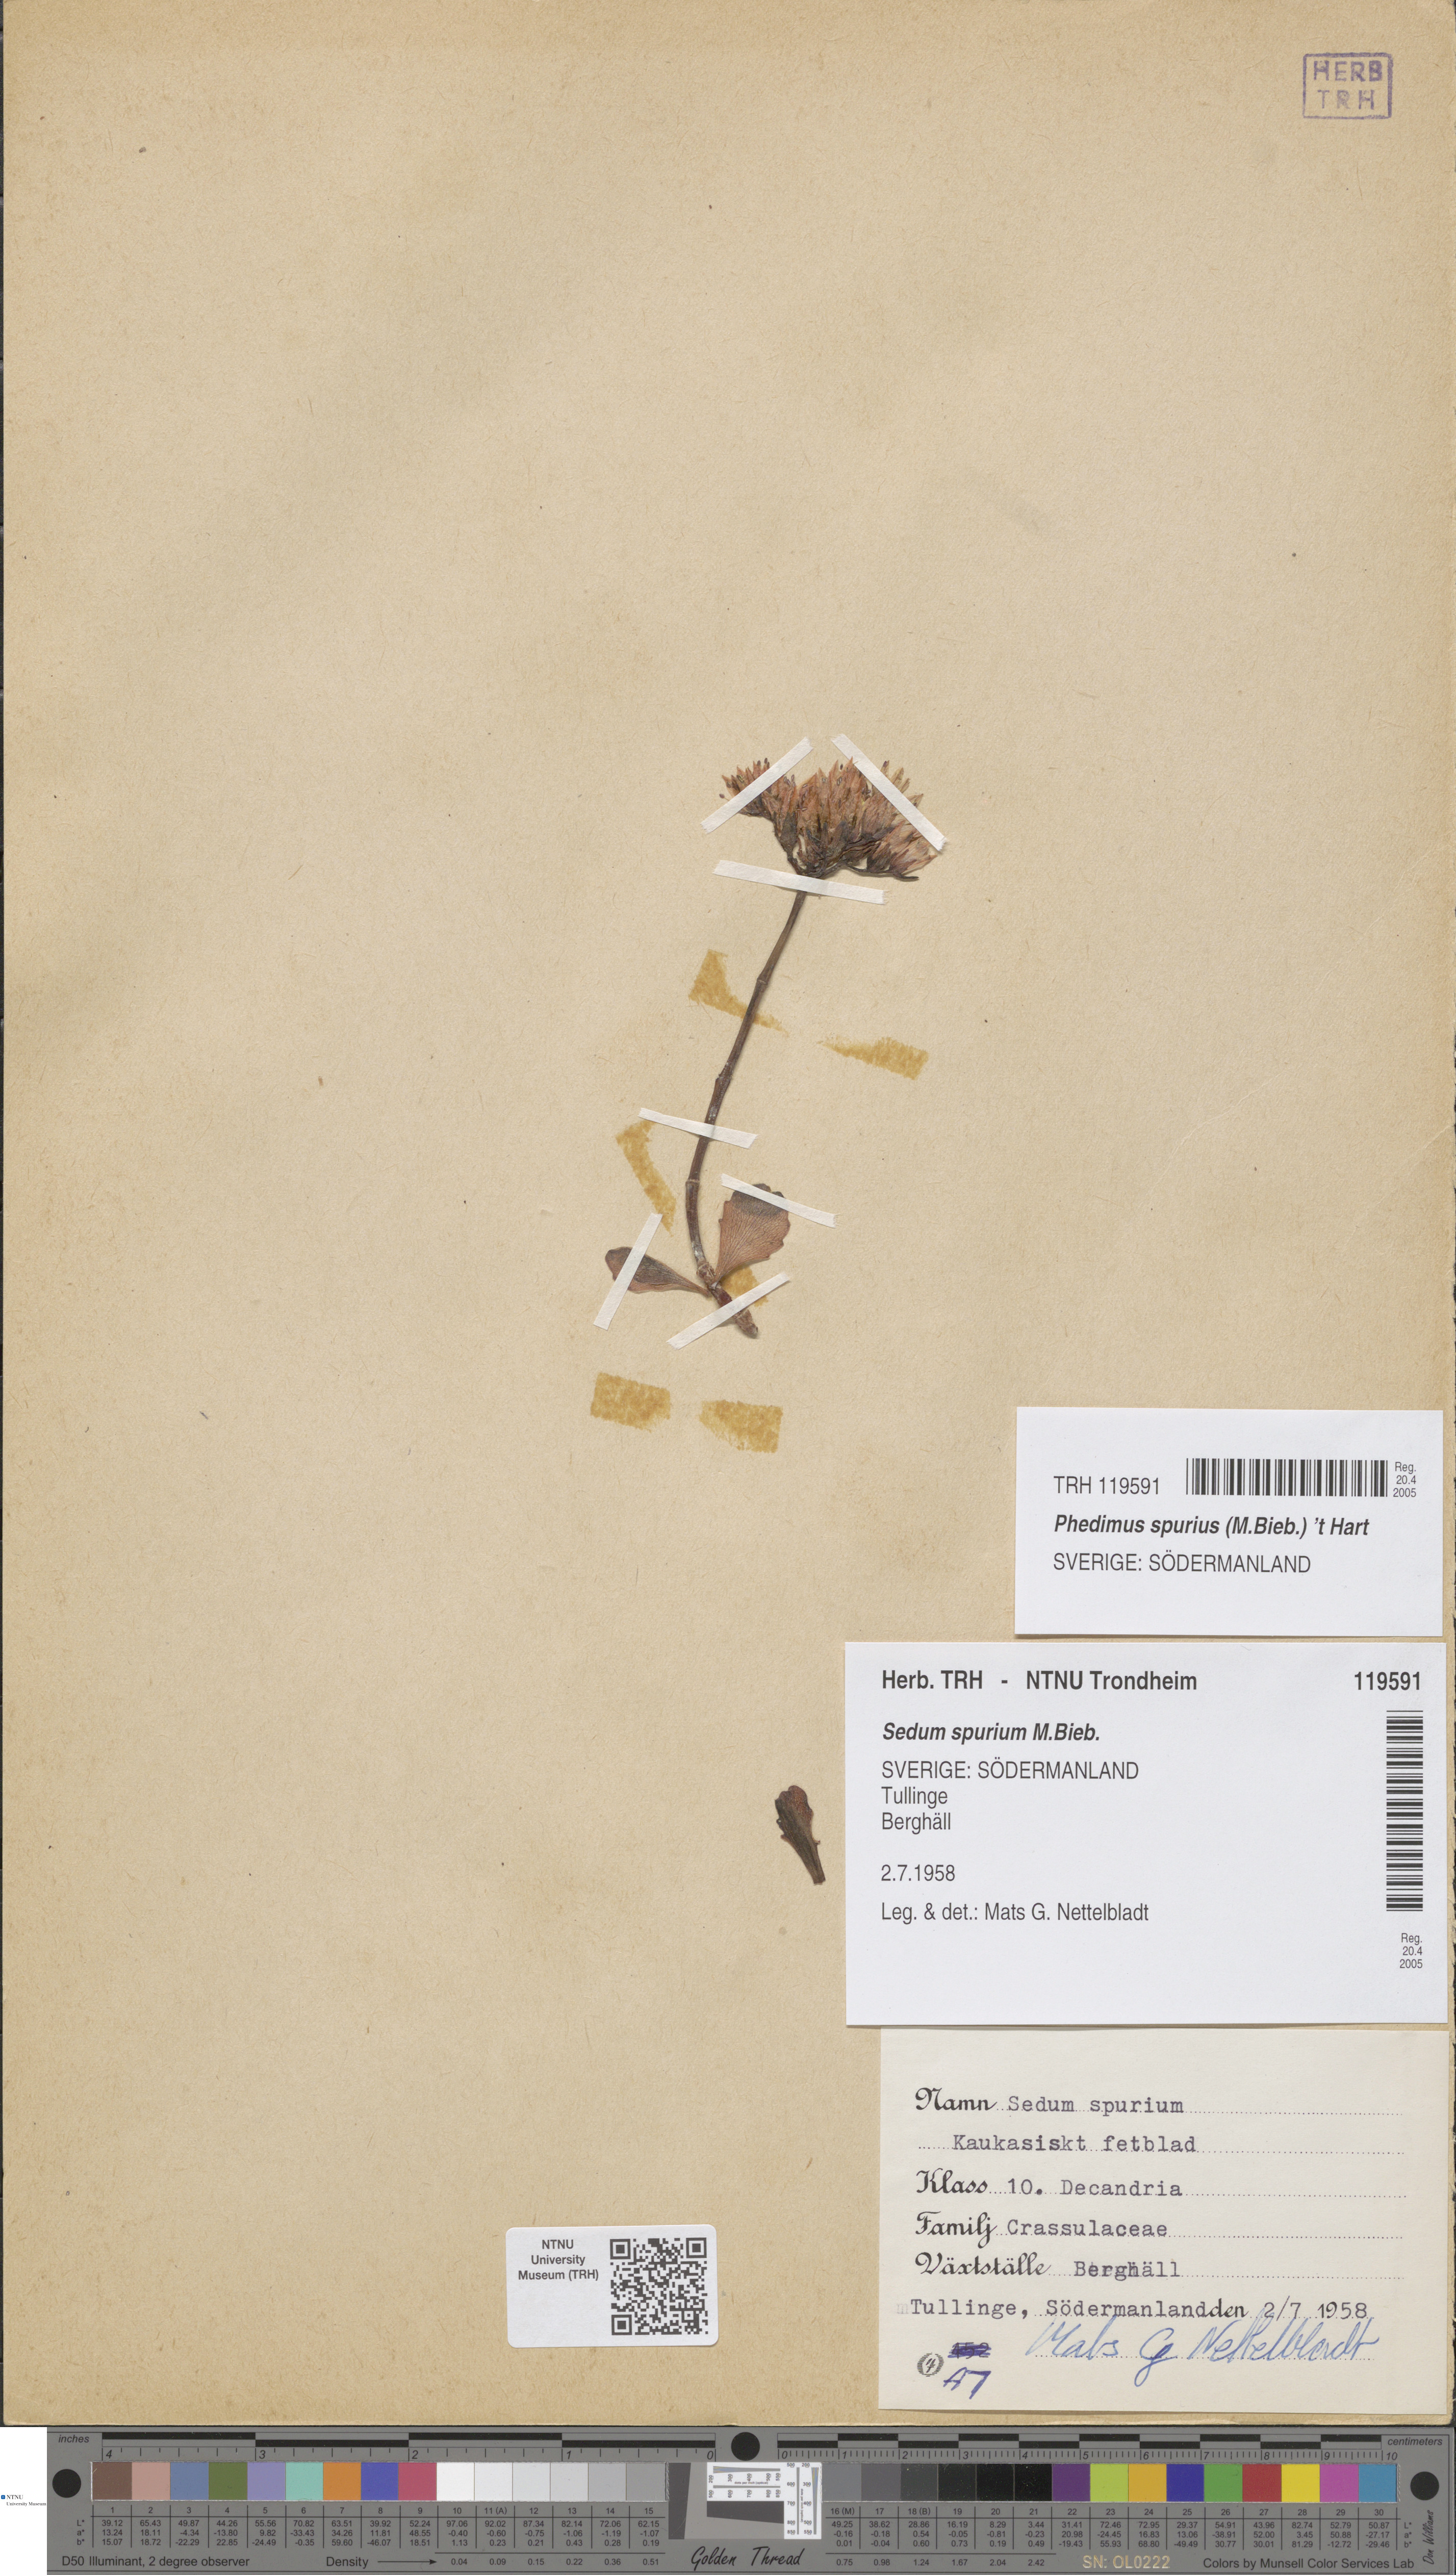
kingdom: Plantae
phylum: Tracheophyta
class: Magnoliopsida
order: Saxifragales
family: Crassulaceae
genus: Phedimus
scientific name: Phedimus spurius
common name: Caucasian stonecrop
